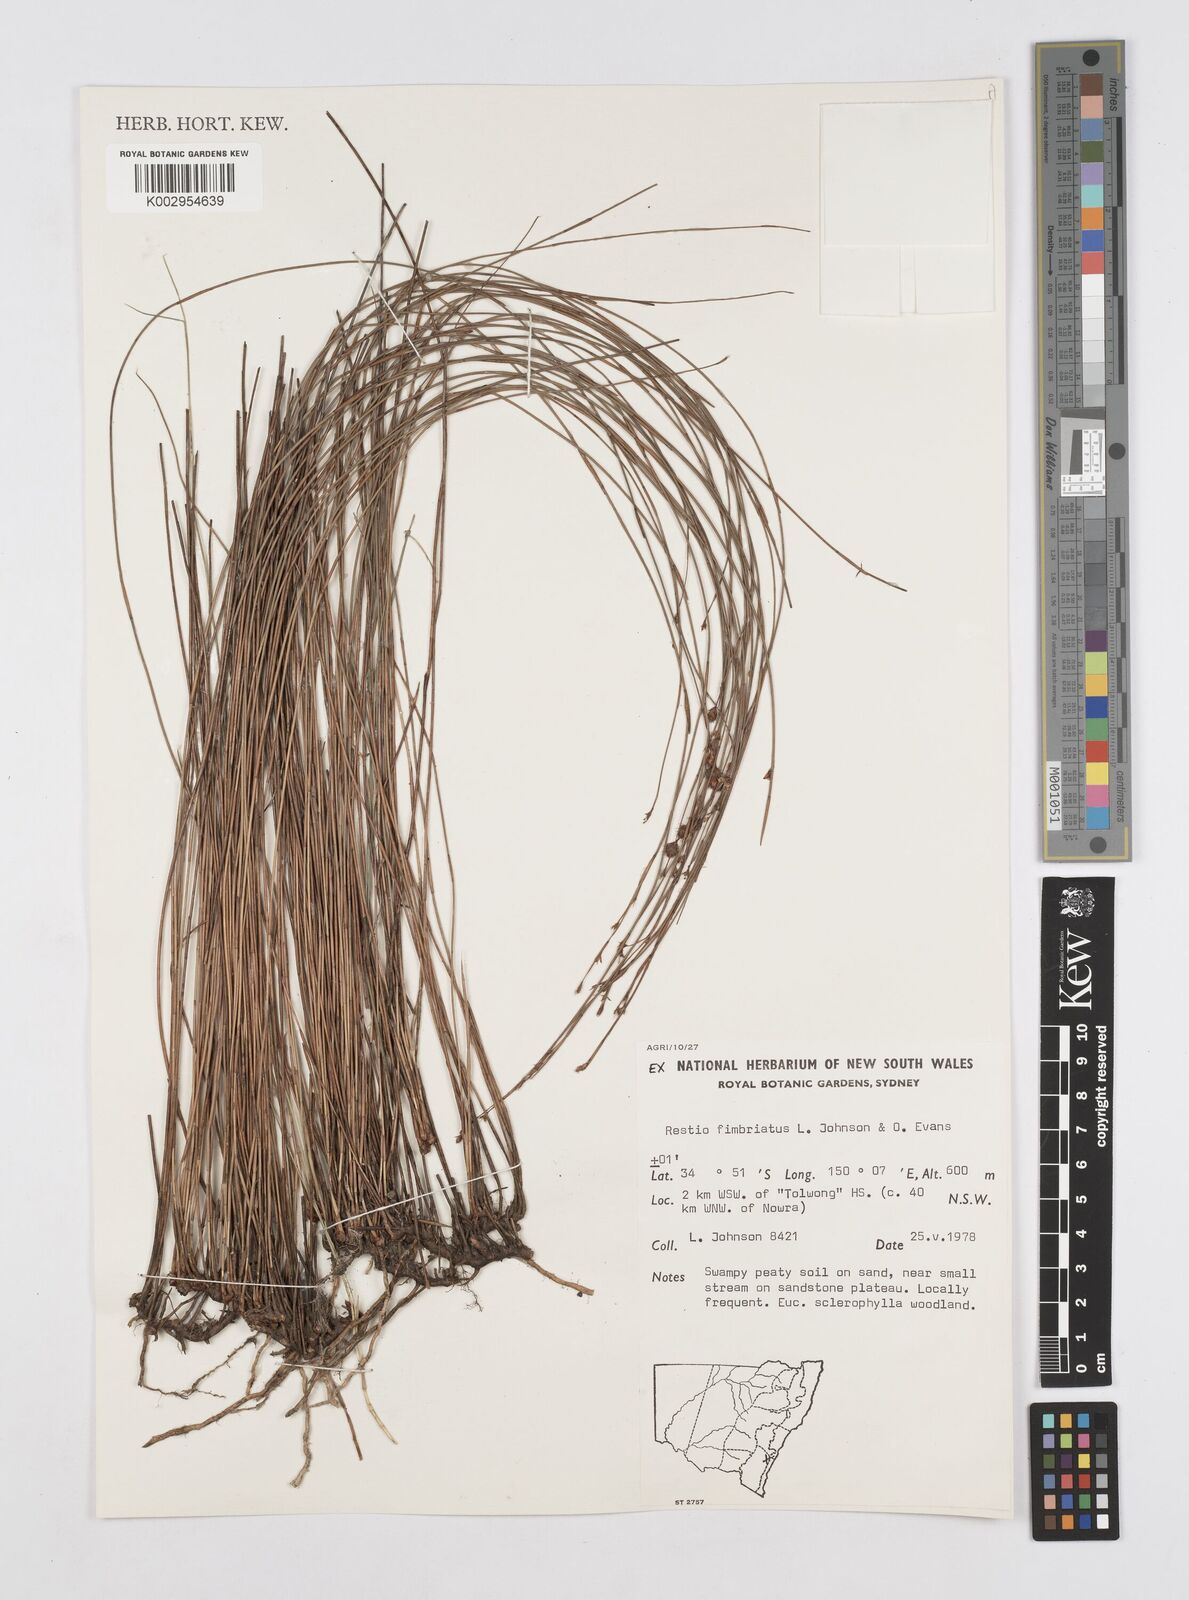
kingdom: Plantae
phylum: Tracheophyta
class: Liliopsida
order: Poales
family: Restionaceae
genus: Baloskion
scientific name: Baloskion fimbriatum
